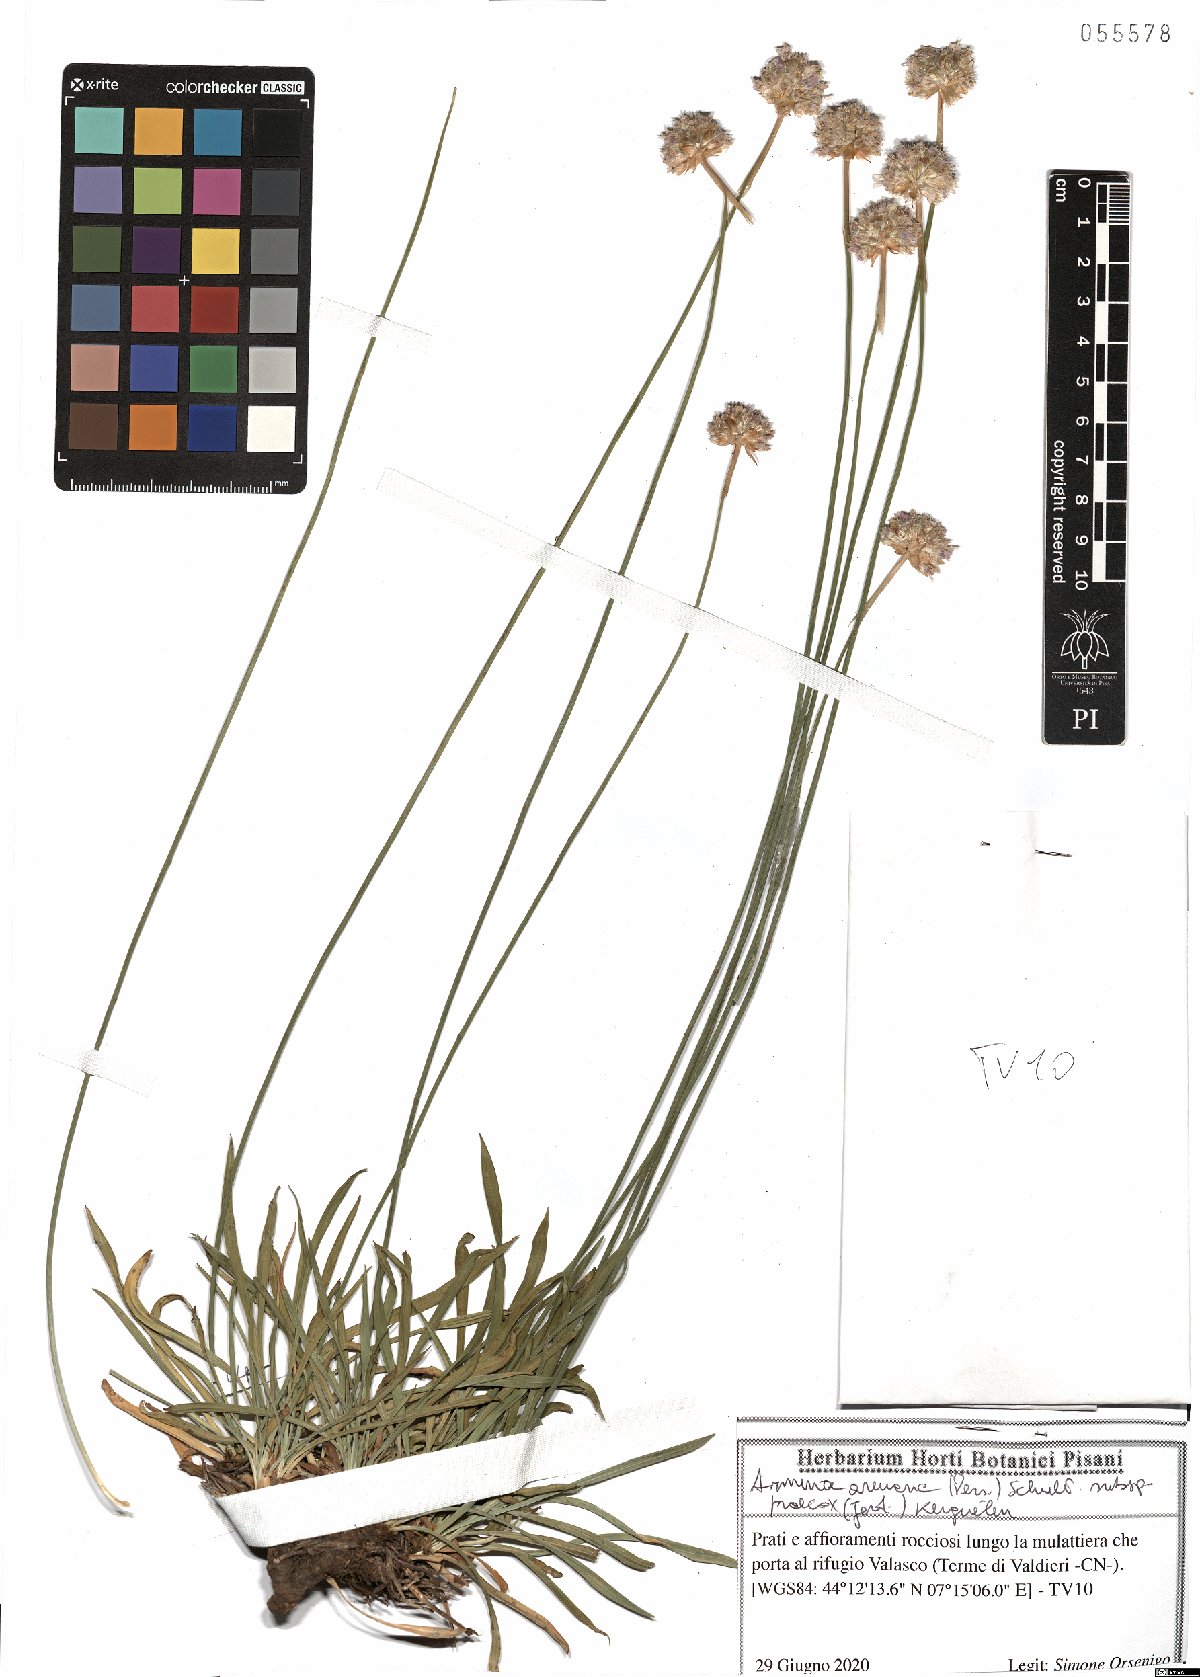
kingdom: Plantae
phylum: Tracheophyta
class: Magnoliopsida
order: Caryophyllales
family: Plumbaginaceae
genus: Armeria
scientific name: Armeria arenaria
